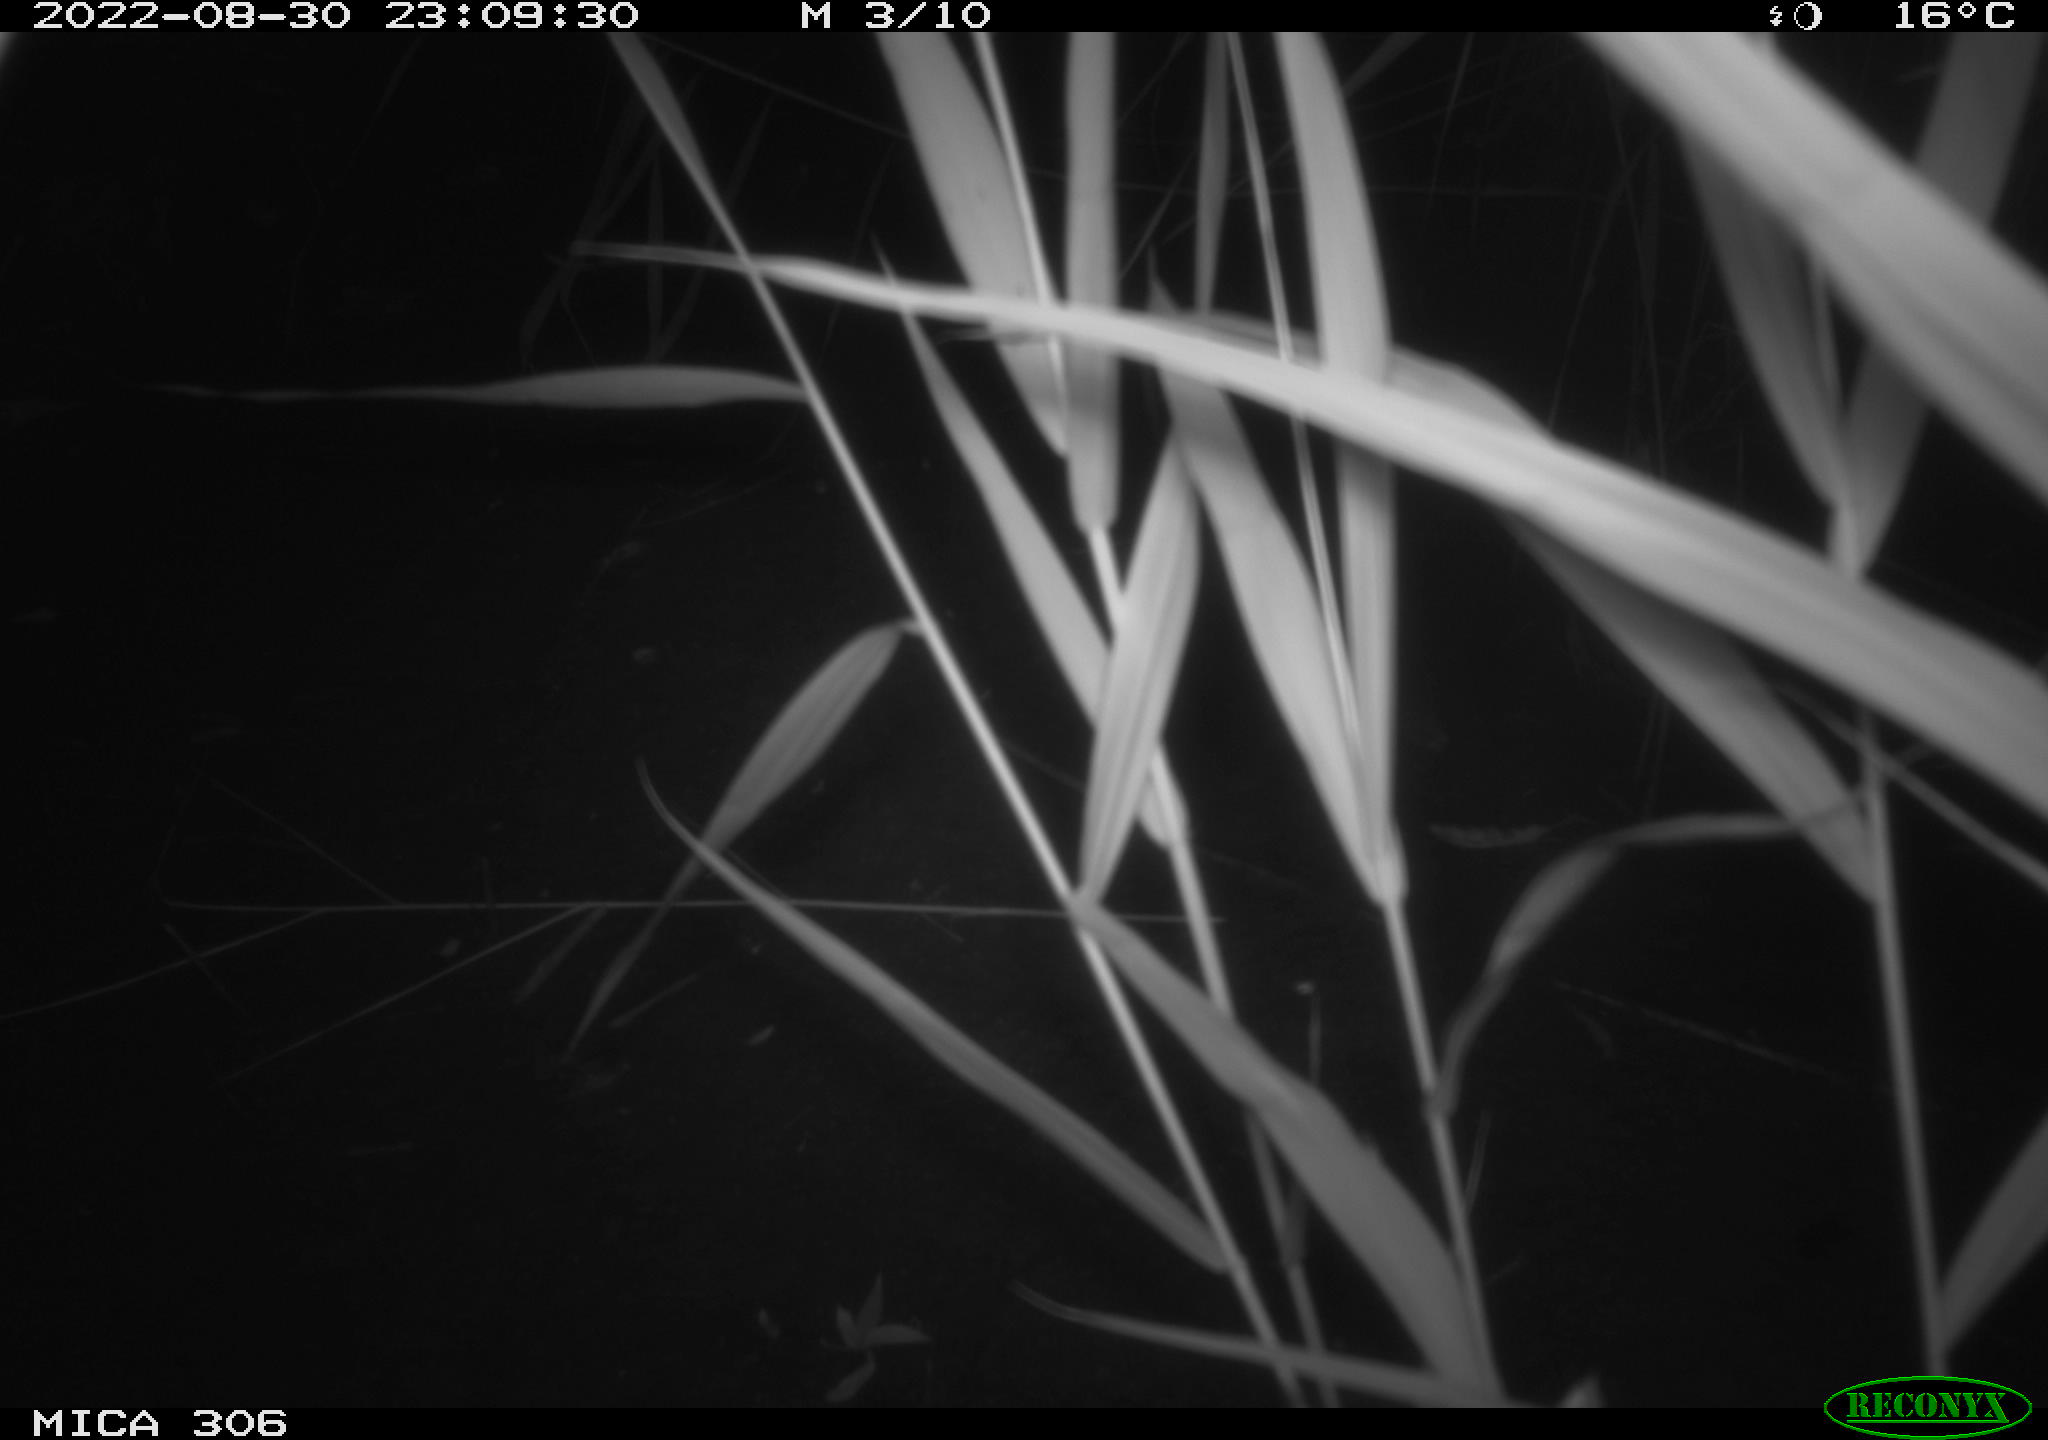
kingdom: Animalia
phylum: Chordata
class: Mammalia
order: Rodentia
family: Muridae
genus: Rattus
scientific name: Rattus norvegicus
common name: Brown rat
